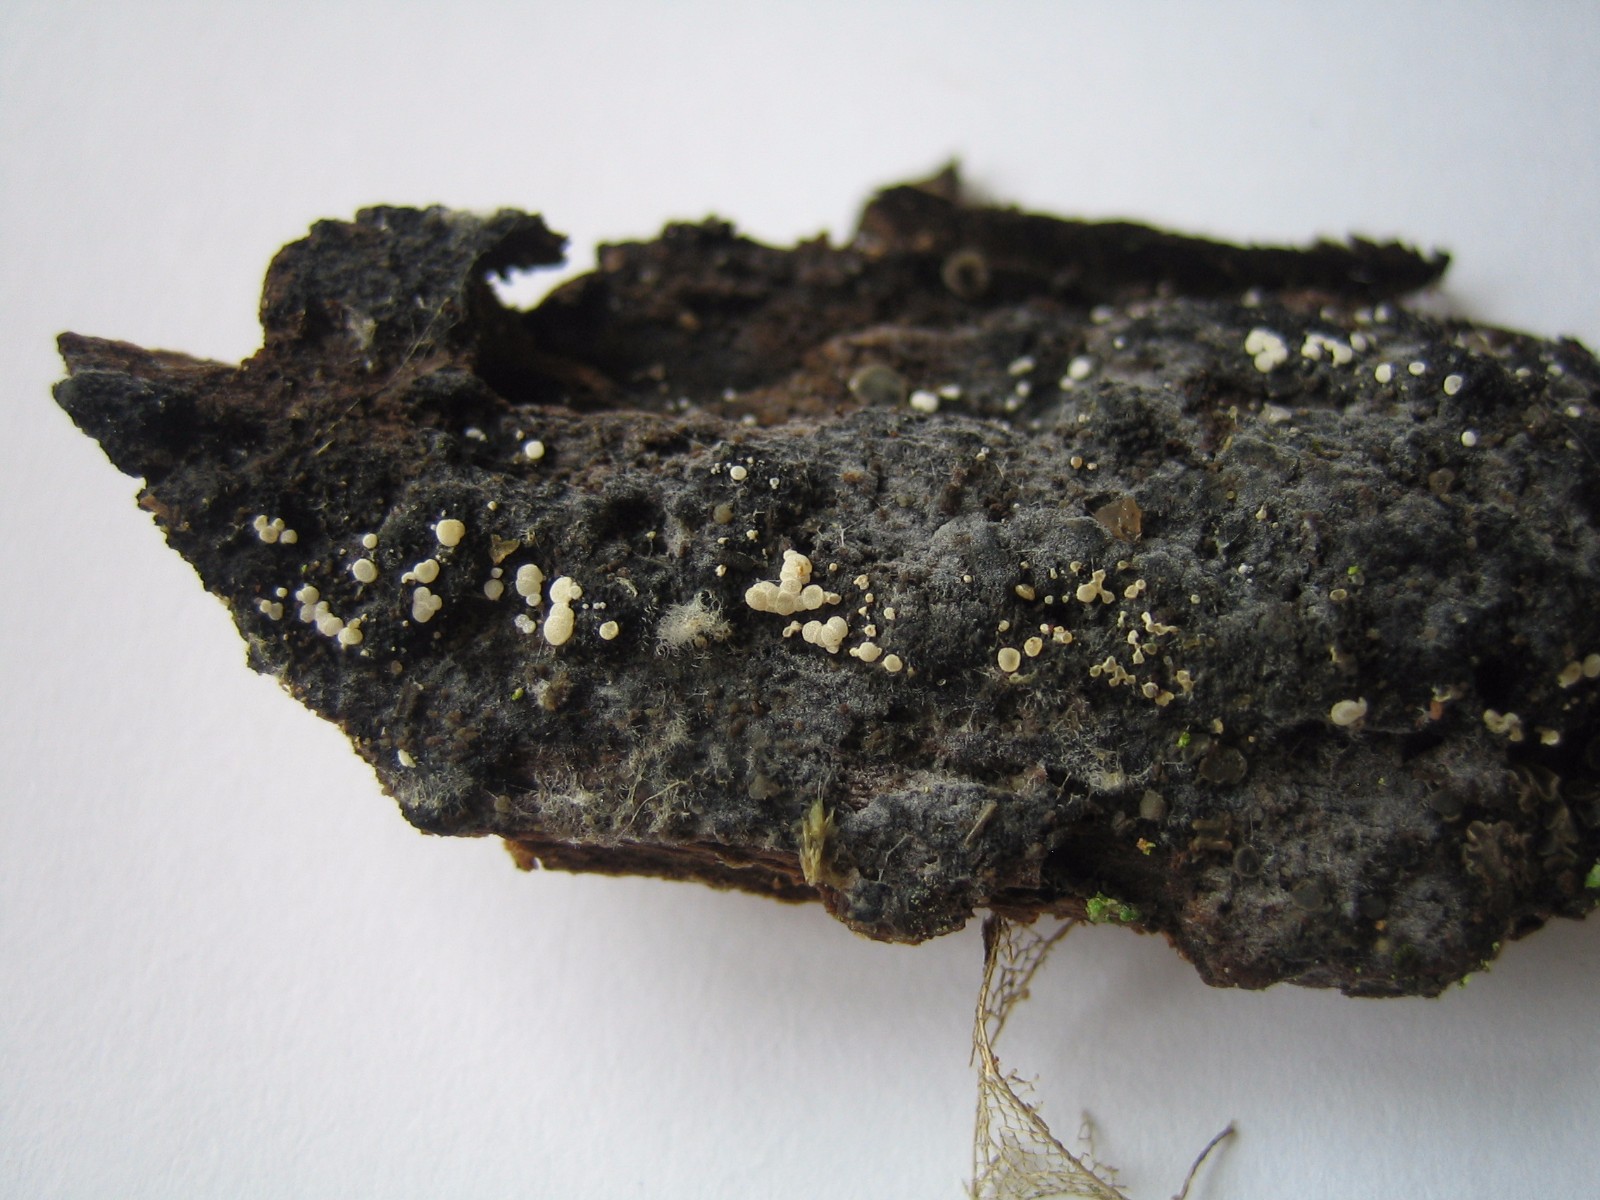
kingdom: Fungi
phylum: Ascomycota
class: Leotiomycetes
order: Helotiales
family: Hyaloscyphaceae
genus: Polydesmia
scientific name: Polydesmia pruinosa
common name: dunskive
